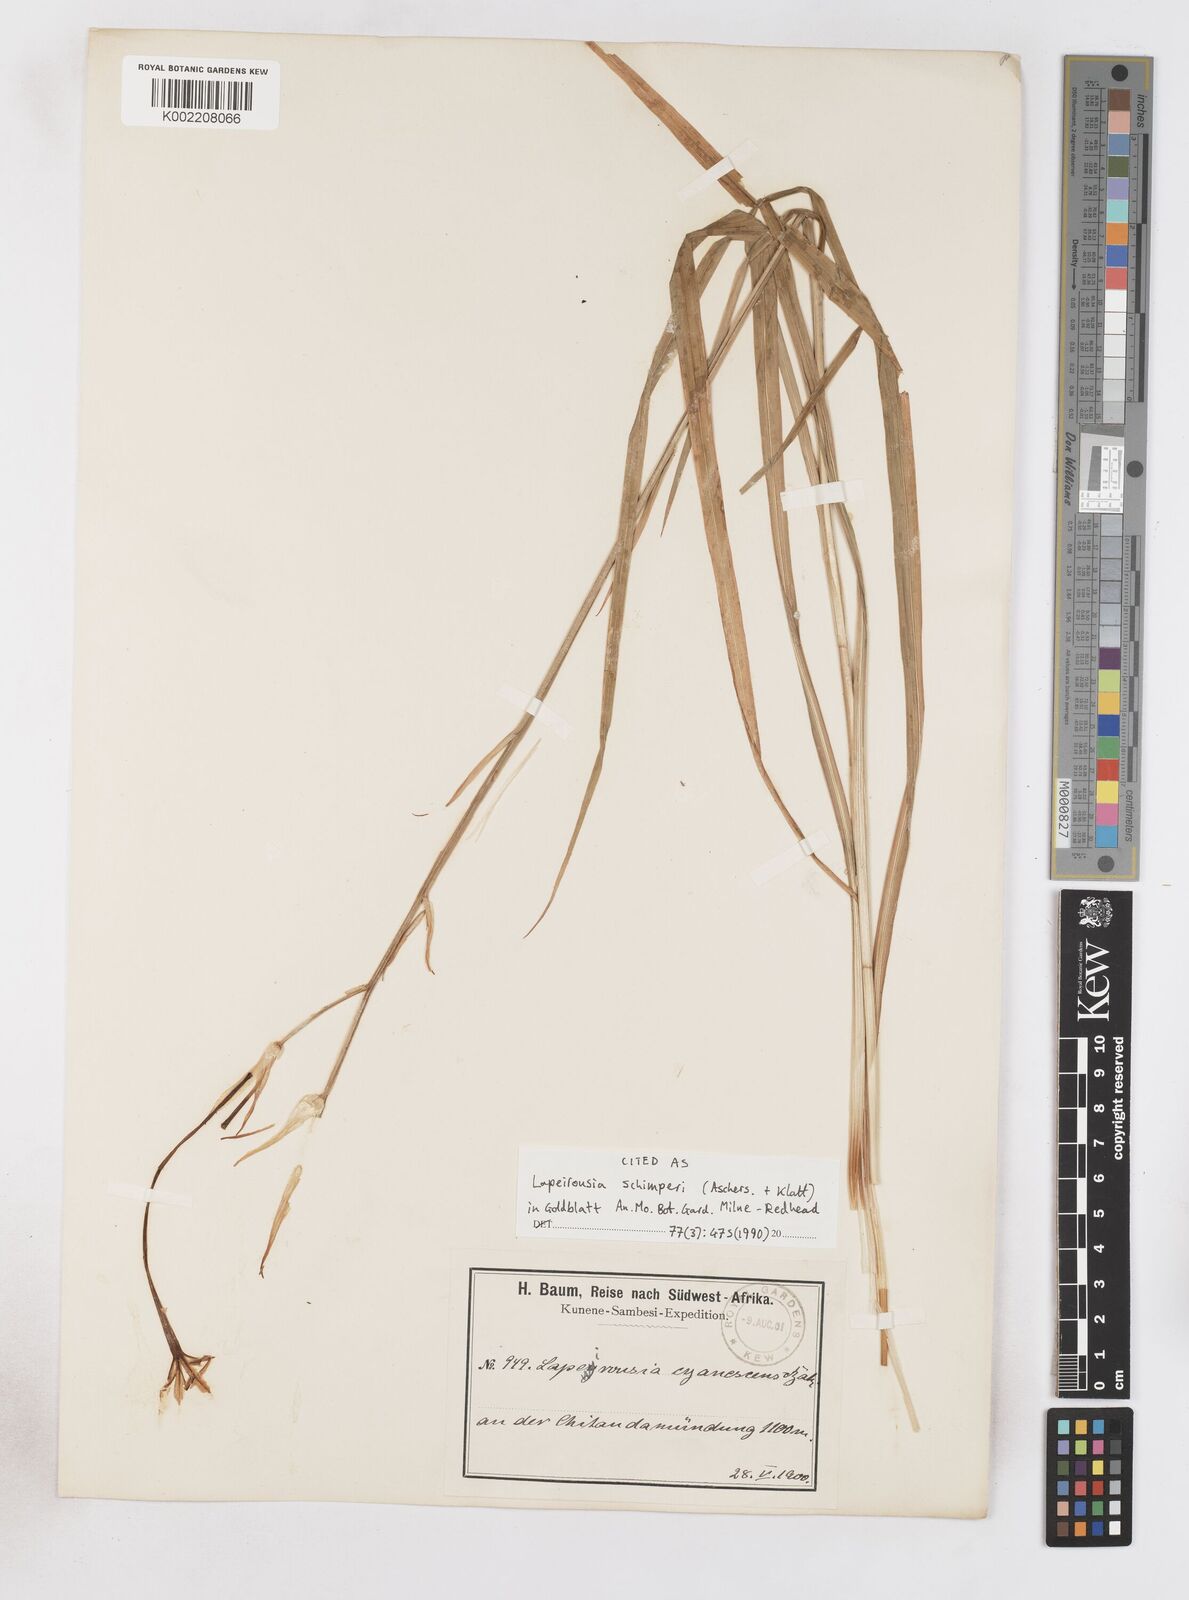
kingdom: Plantae
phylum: Tracheophyta
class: Liliopsida
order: Asparagales
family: Iridaceae
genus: Afrosolen
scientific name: Afrosolen schimperi
